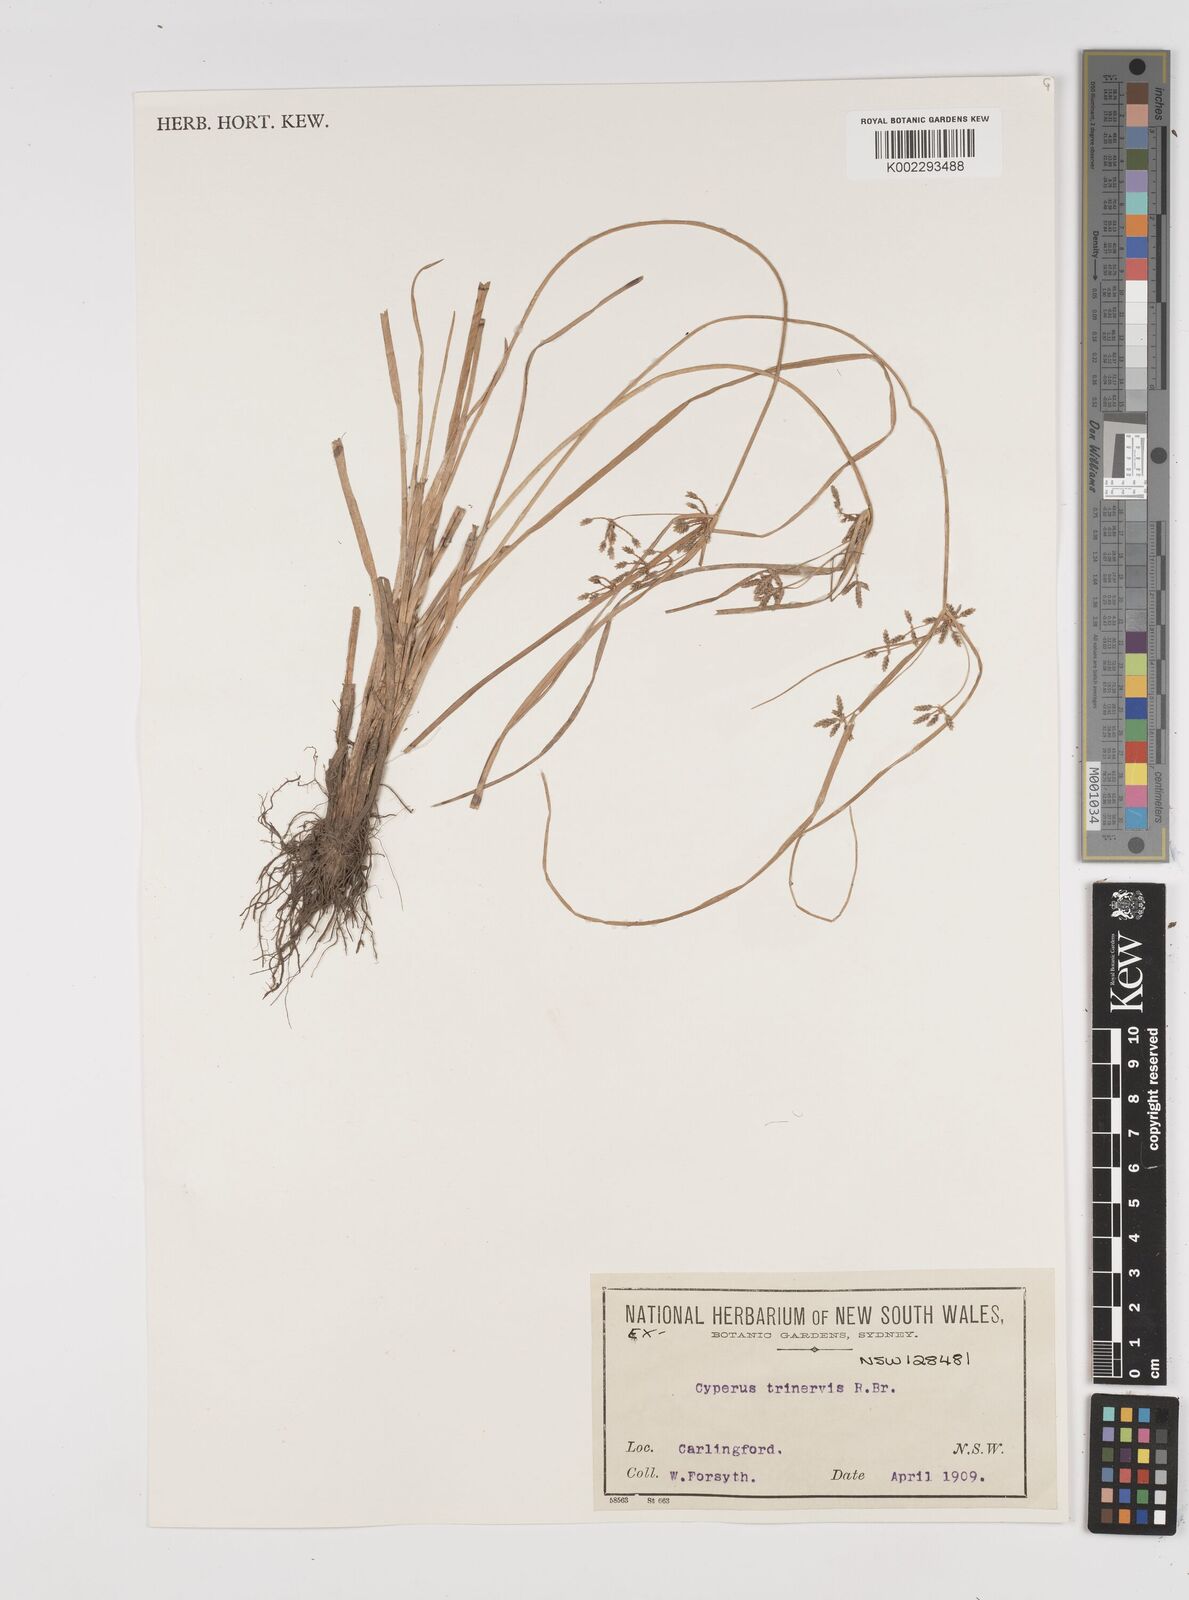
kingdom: Plantae
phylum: Tracheophyta
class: Liliopsida
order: Poales
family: Cyperaceae
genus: Cyperus
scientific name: Cyperus trinervis
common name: Australian flatsedge
